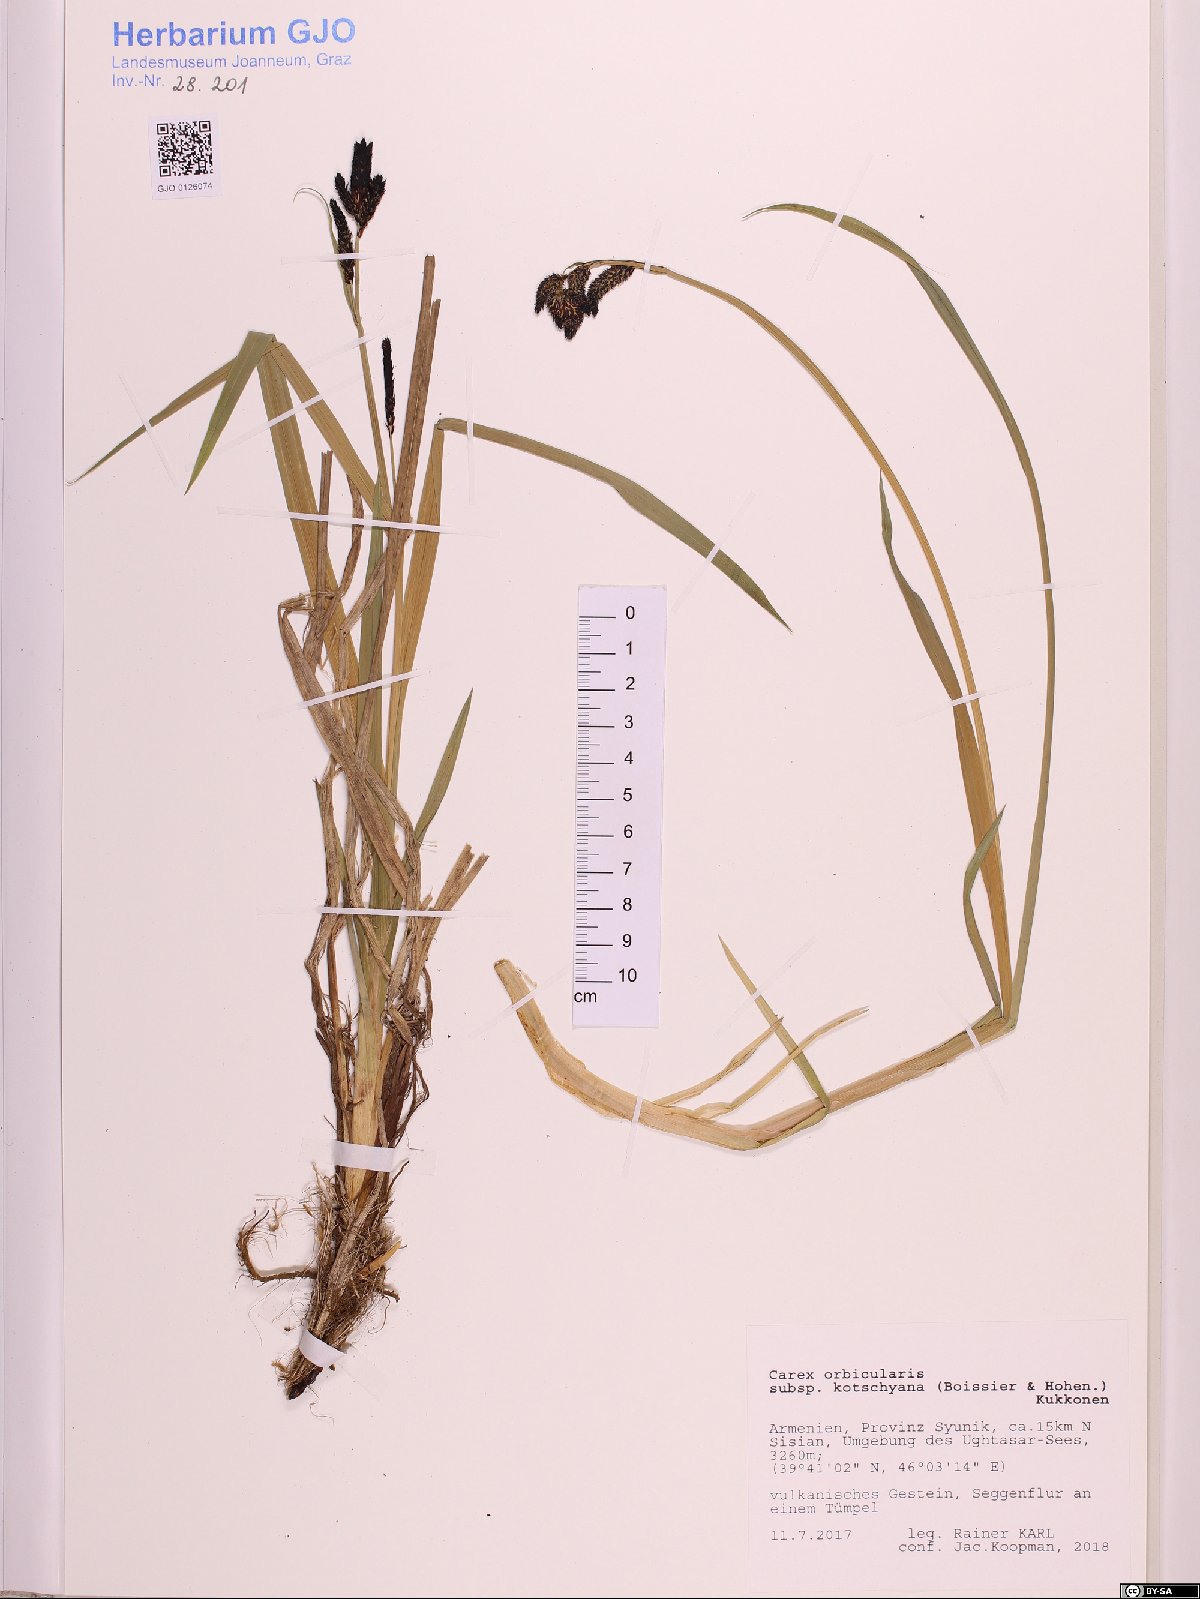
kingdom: Plantae
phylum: Tracheophyta
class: Liliopsida
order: Poales
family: Cyperaceae
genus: Carex
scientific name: Carex orbicularis
